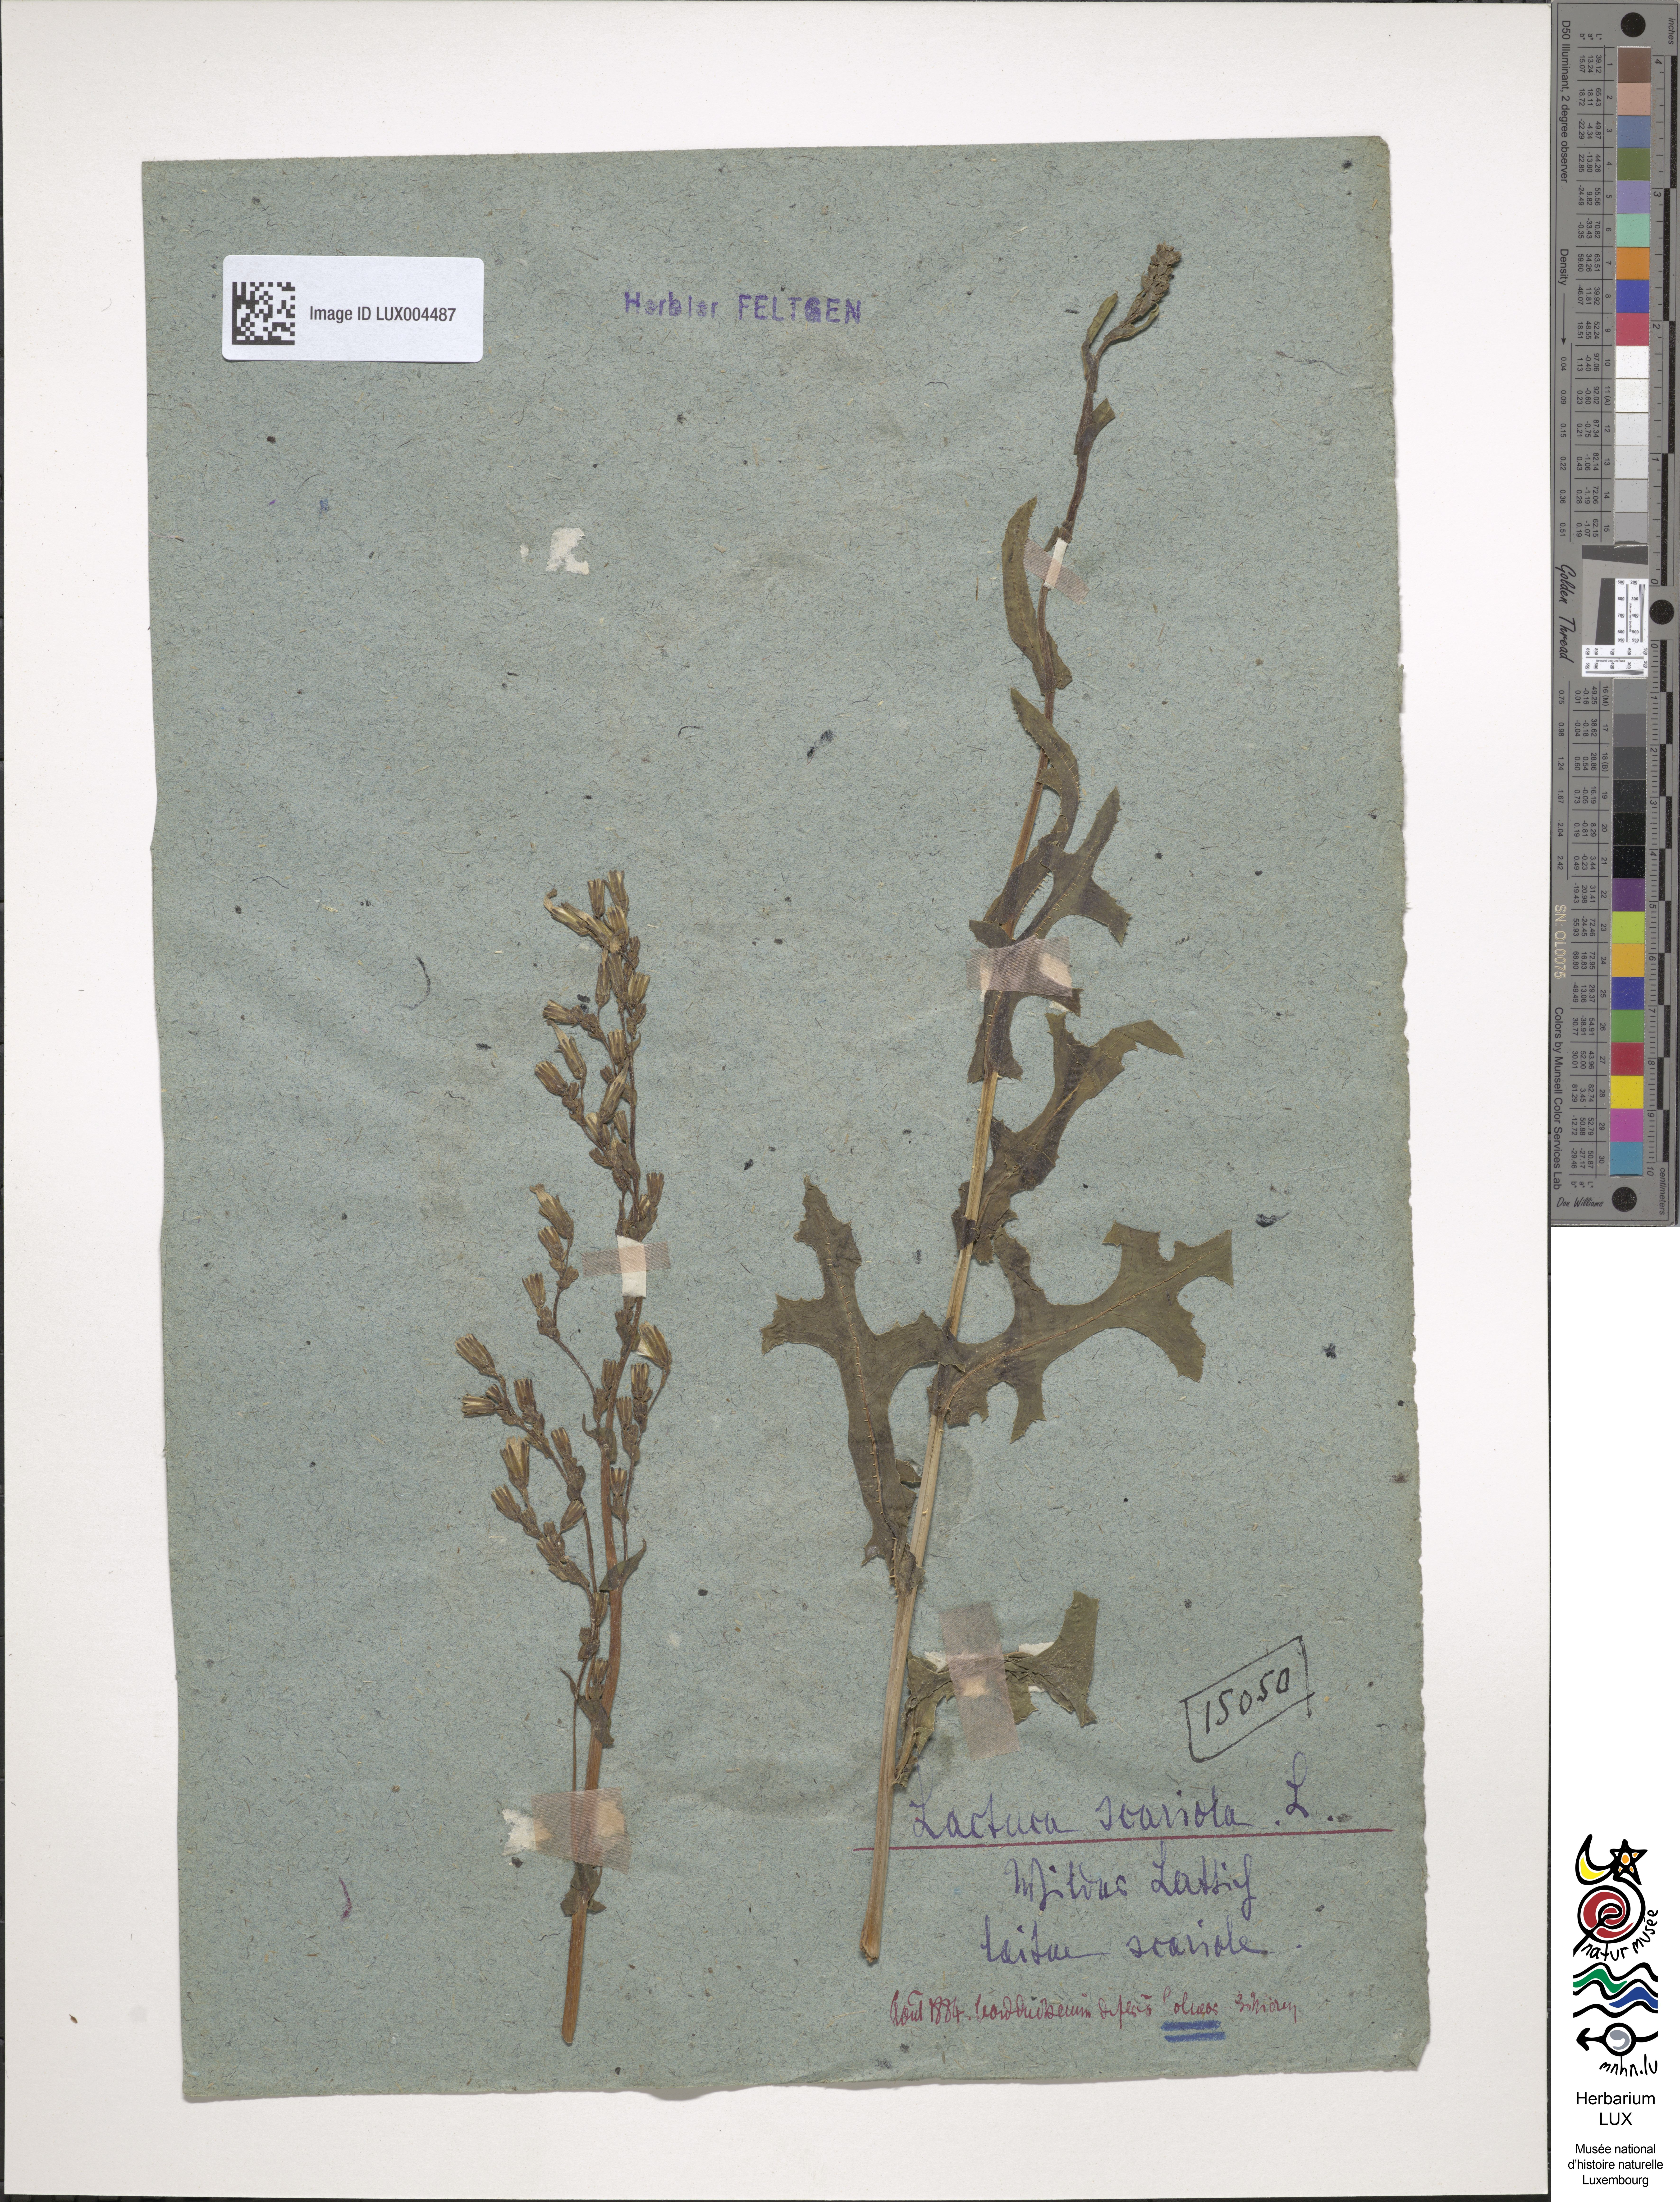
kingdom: Plantae
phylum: Tracheophyta
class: Magnoliopsida
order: Asterales
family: Asteraceae
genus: Lactuca
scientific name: Lactuca serriola
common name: Prickly lettuce
